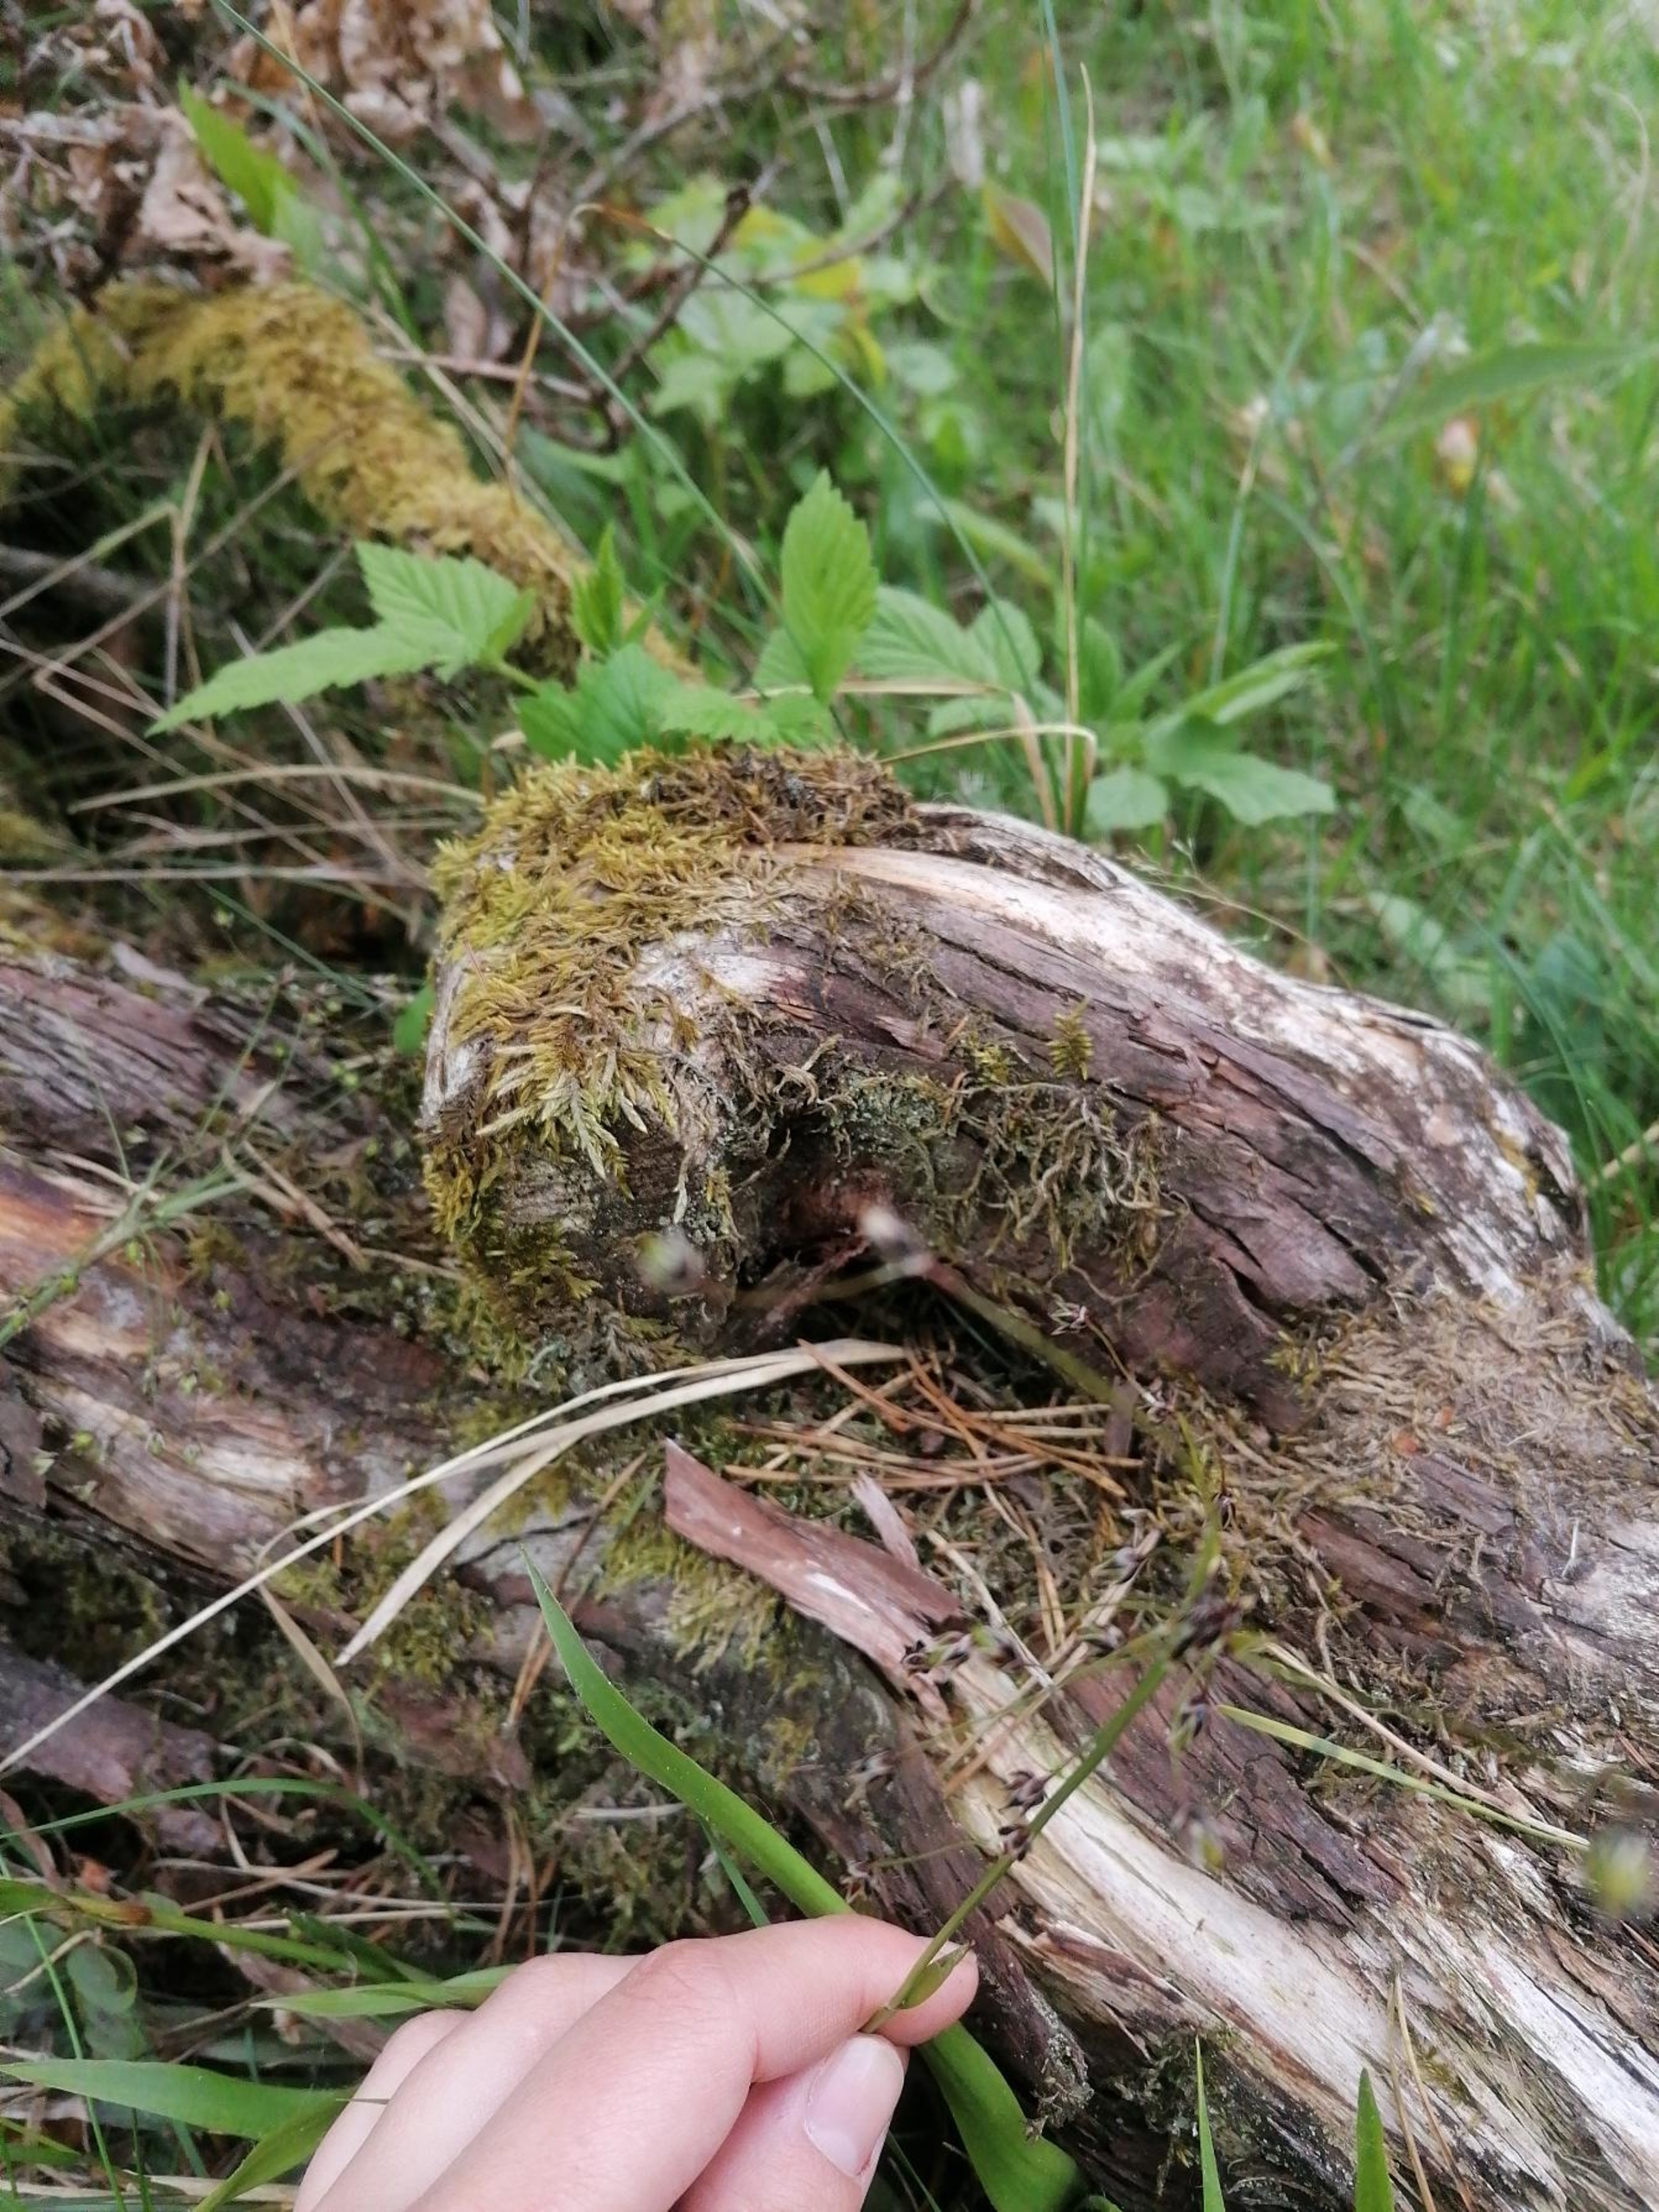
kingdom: Plantae
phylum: Tracheophyta
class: Liliopsida
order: Poales
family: Juncaceae
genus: Luzula
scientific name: Luzula pilosa
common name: Håret frytle
